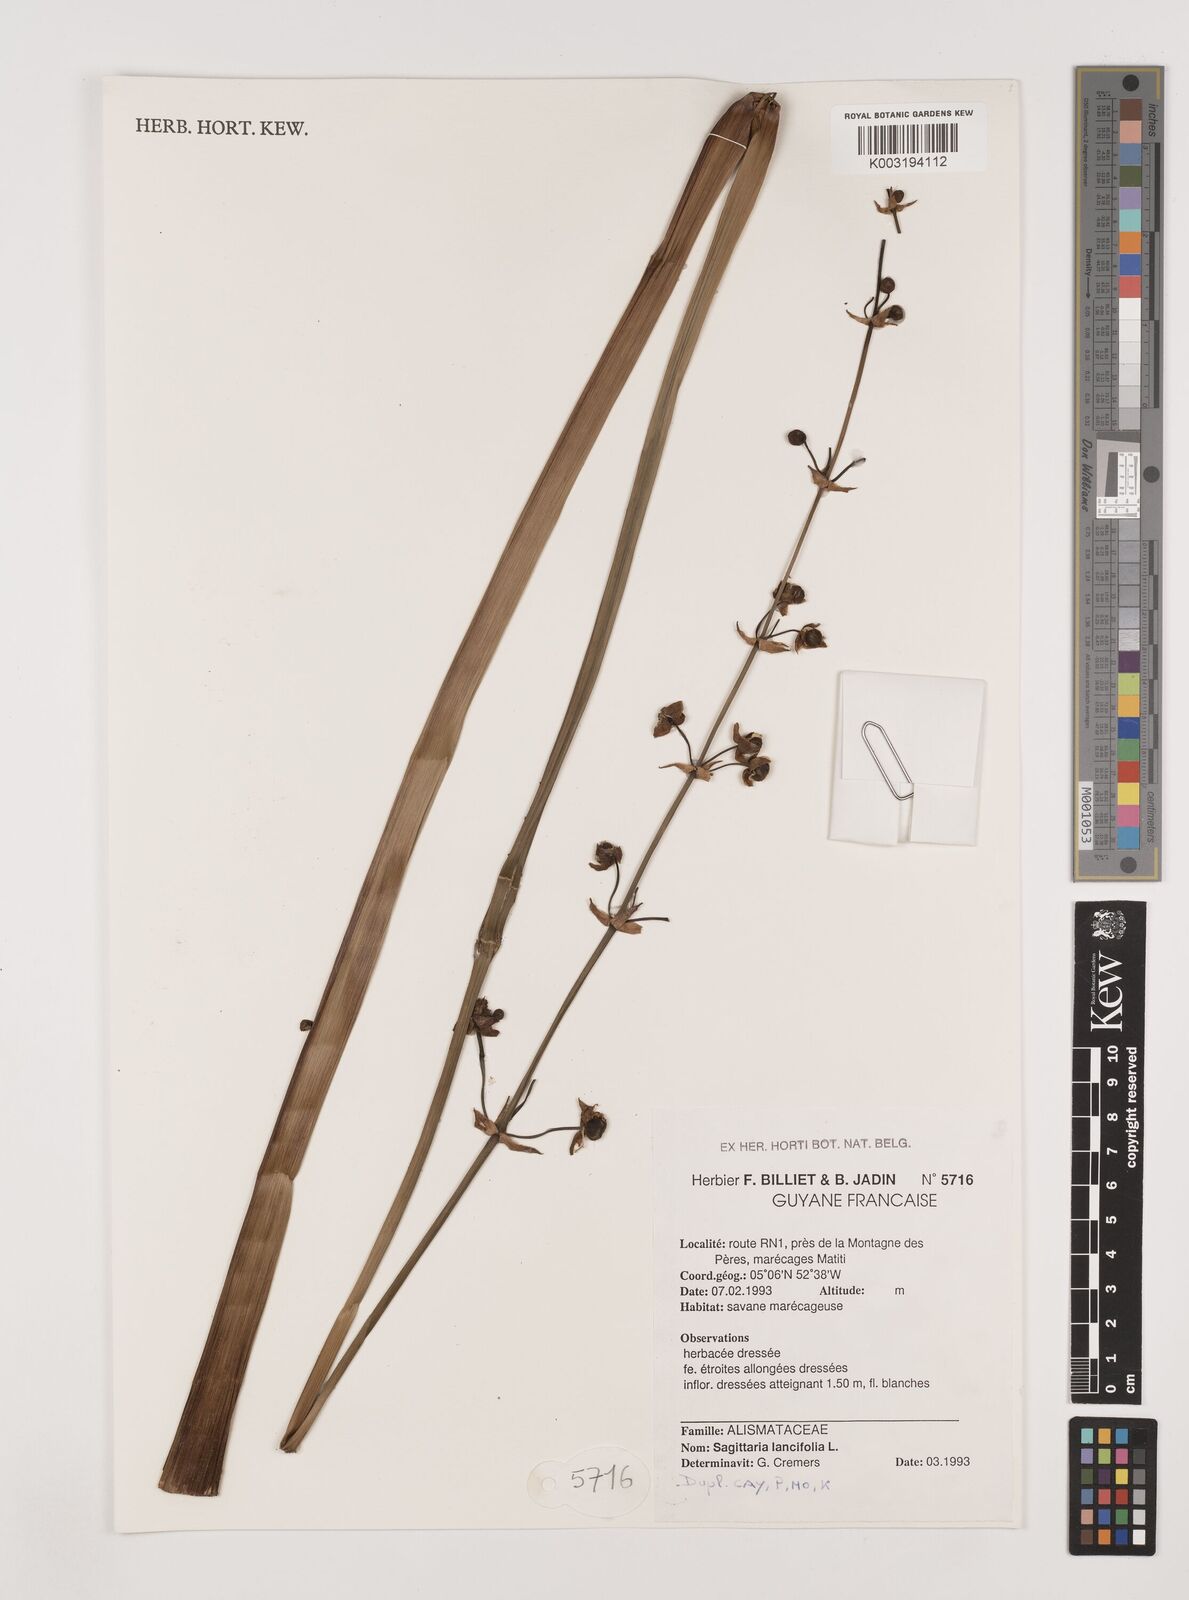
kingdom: Plantae
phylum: Tracheophyta
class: Liliopsida
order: Alismatales
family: Alismataceae
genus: Sagittaria
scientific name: Sagittaria lancifolia
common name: Lance-leaf arrowhead
